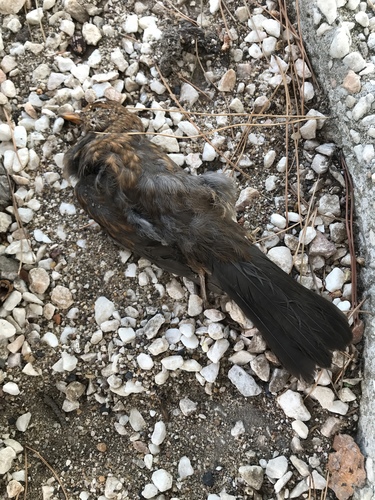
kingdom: Animalia
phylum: Chordata
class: Aves
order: Passeriformes
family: Turdidae
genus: Turdus
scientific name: Turdus merula
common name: Common blackbird
